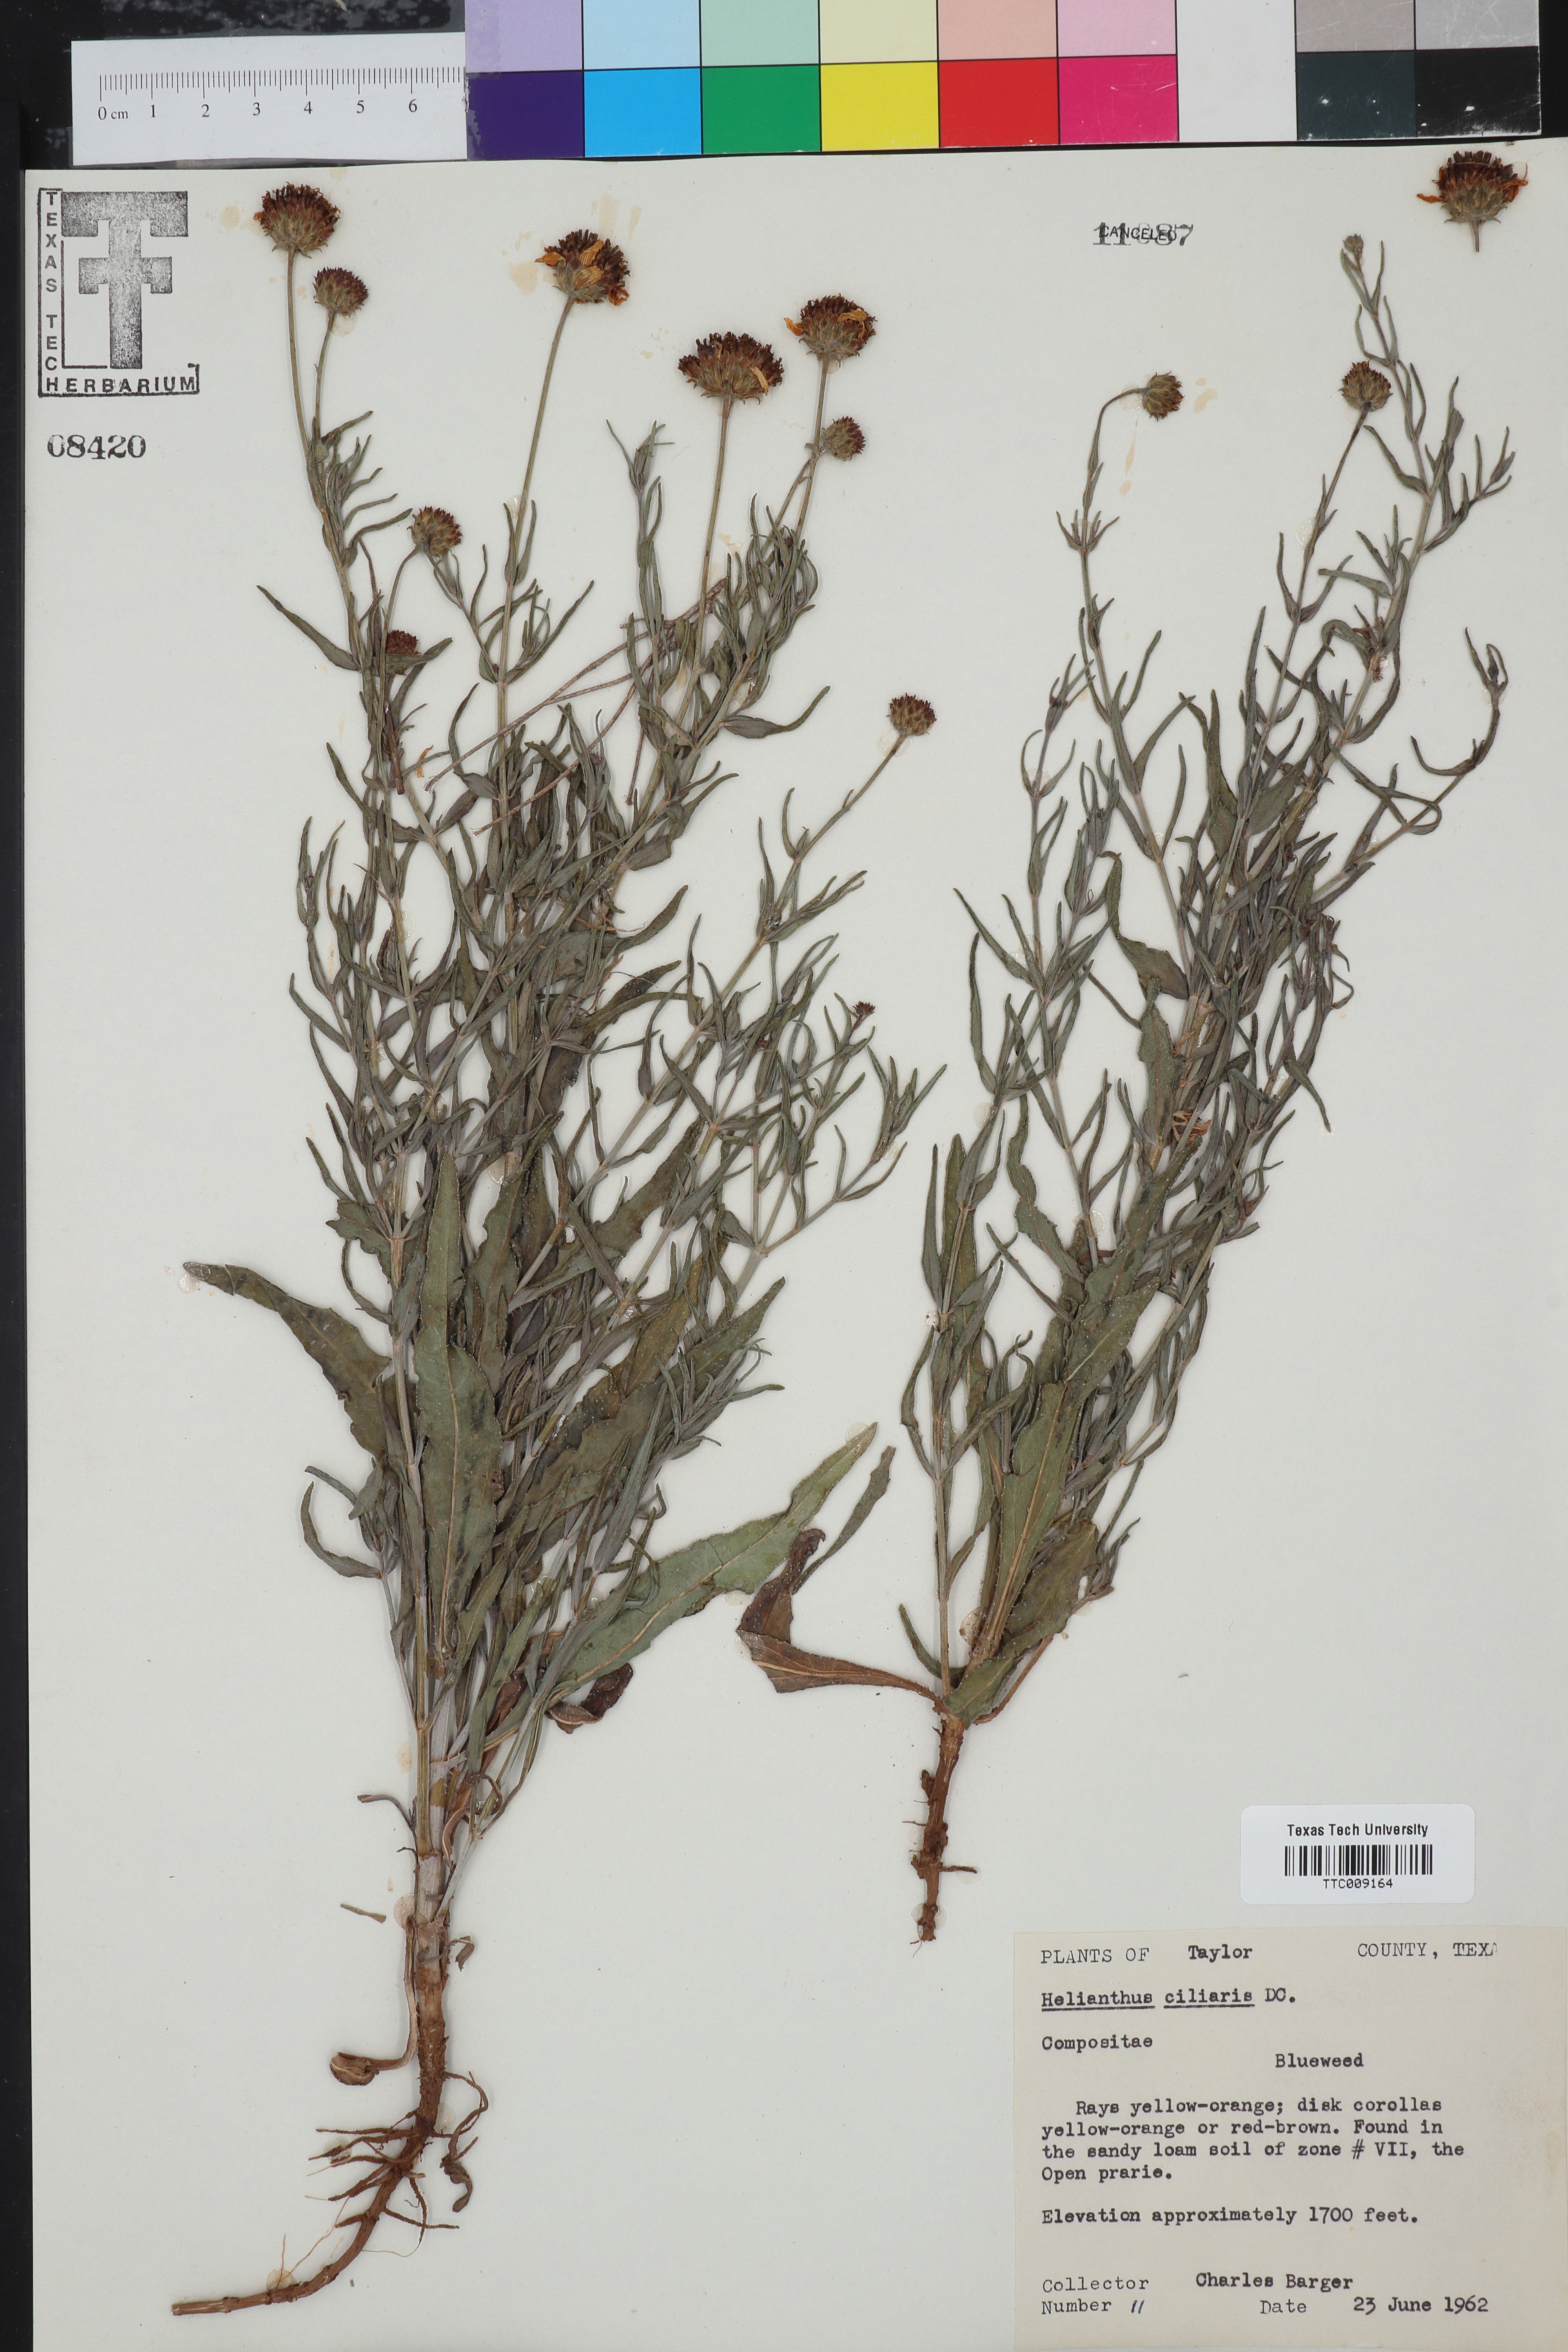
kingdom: Plantae
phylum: Tracheophyta
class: Magnoliopsida
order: Asterales
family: Asteraceae
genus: Helianthus
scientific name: Helianthus ciliaris
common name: Texas blueweed
